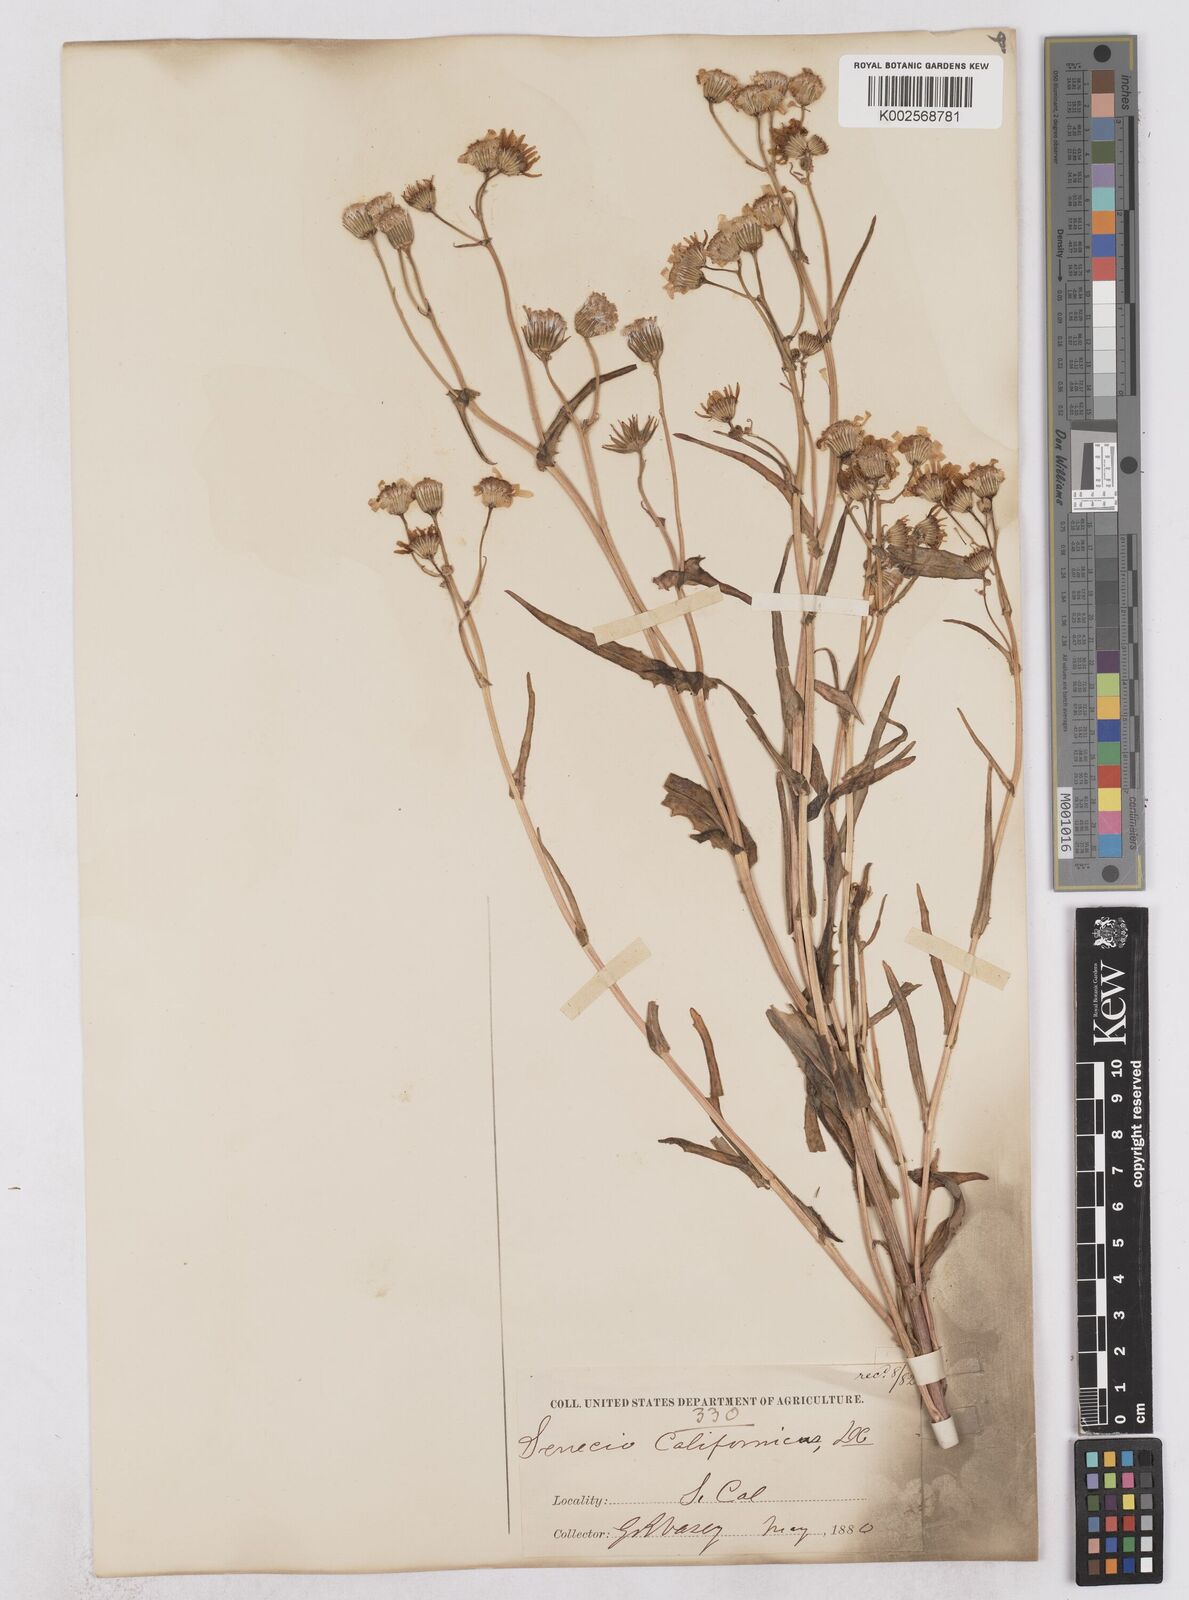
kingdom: Plantae
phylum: Tracheophyta
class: Magnoliopsida
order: Asterales
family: Asteraceae
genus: Senecio
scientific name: Senecio californicus
